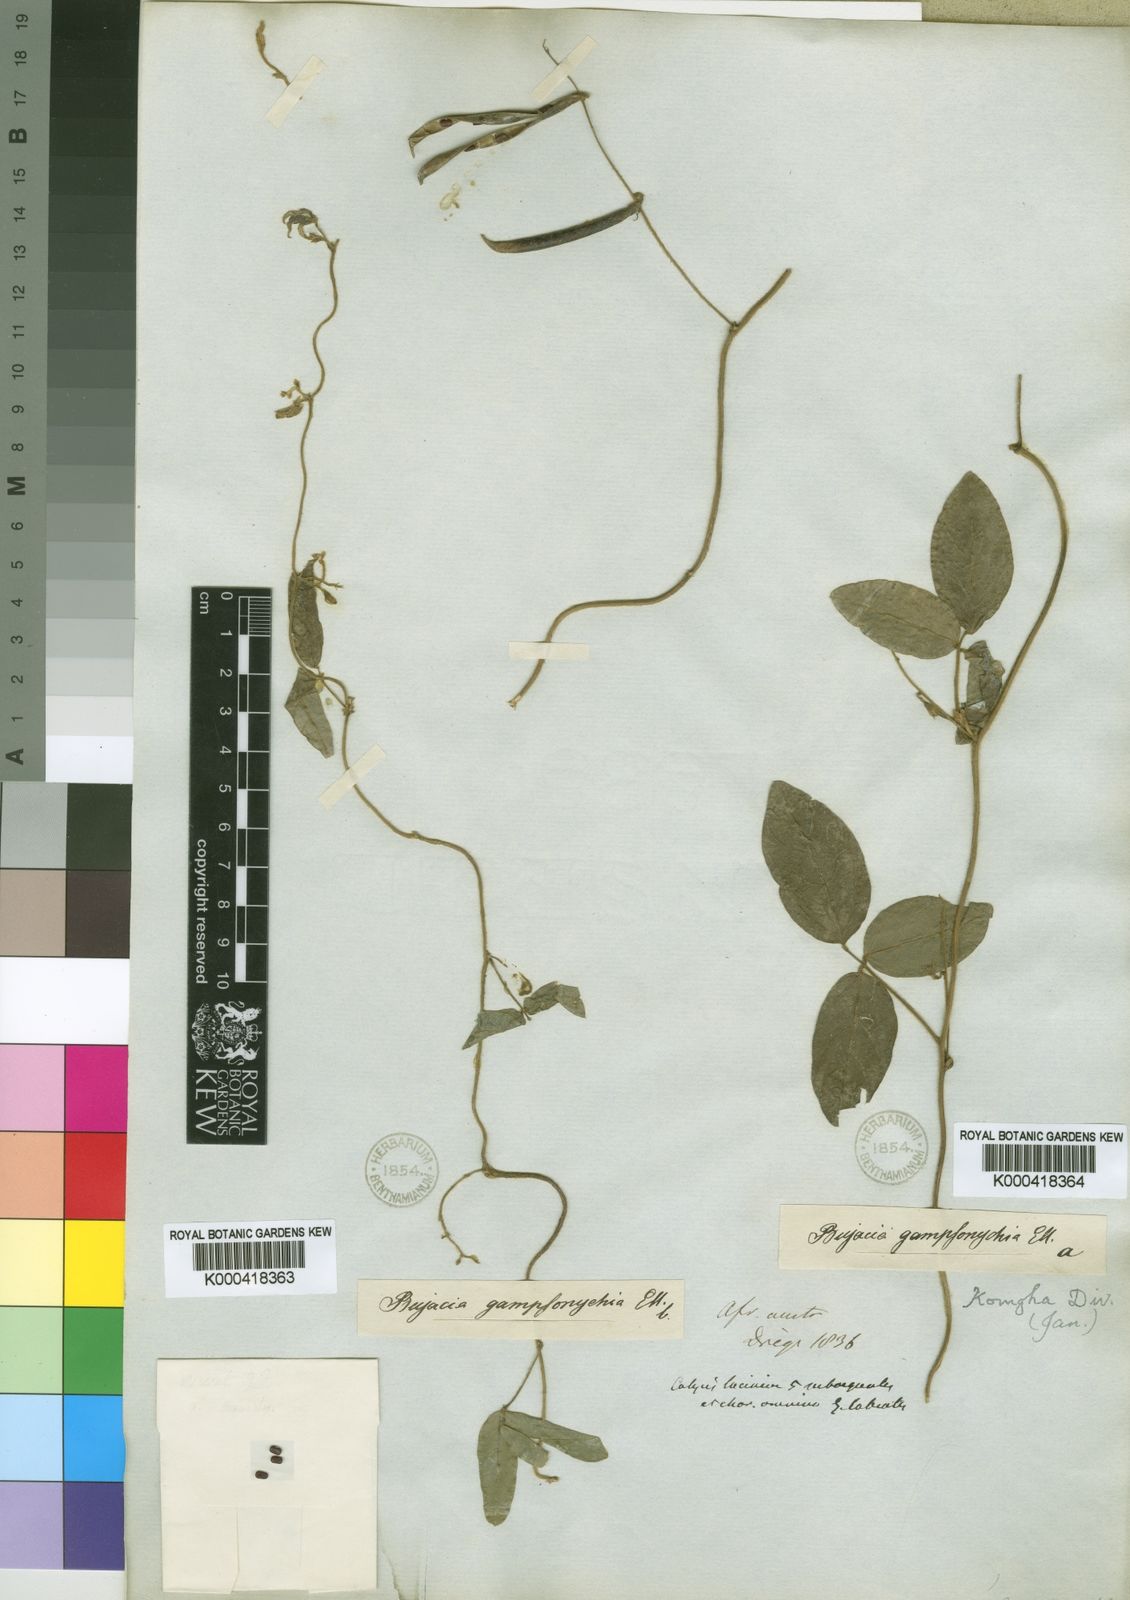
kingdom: Plantae
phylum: Tracheophyta
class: Magnoliopsida
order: Fabales
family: Fabaceae
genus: Teramnus
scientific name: Teramnus labialis
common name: Blue wiss
